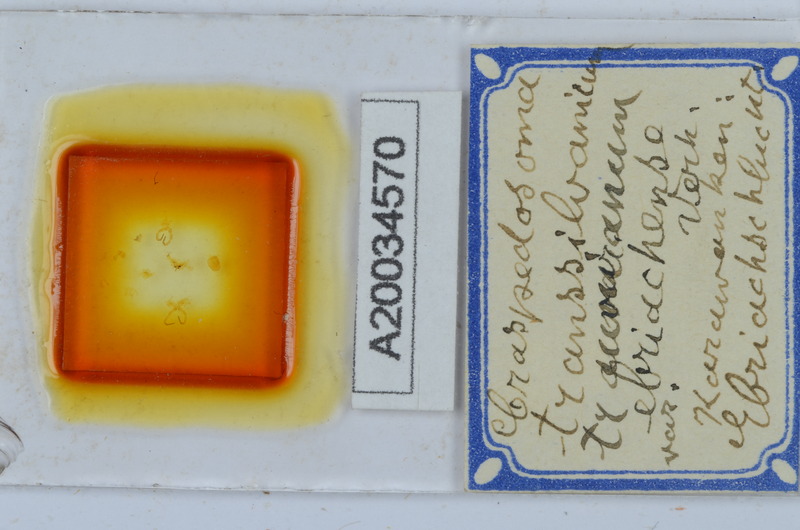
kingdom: Animalia
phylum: Arthropoda
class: Diplopoda
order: Chordeumatida
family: Craspedosomatidae
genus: Craspedosoma
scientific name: Craspedosoma rawlinsii
